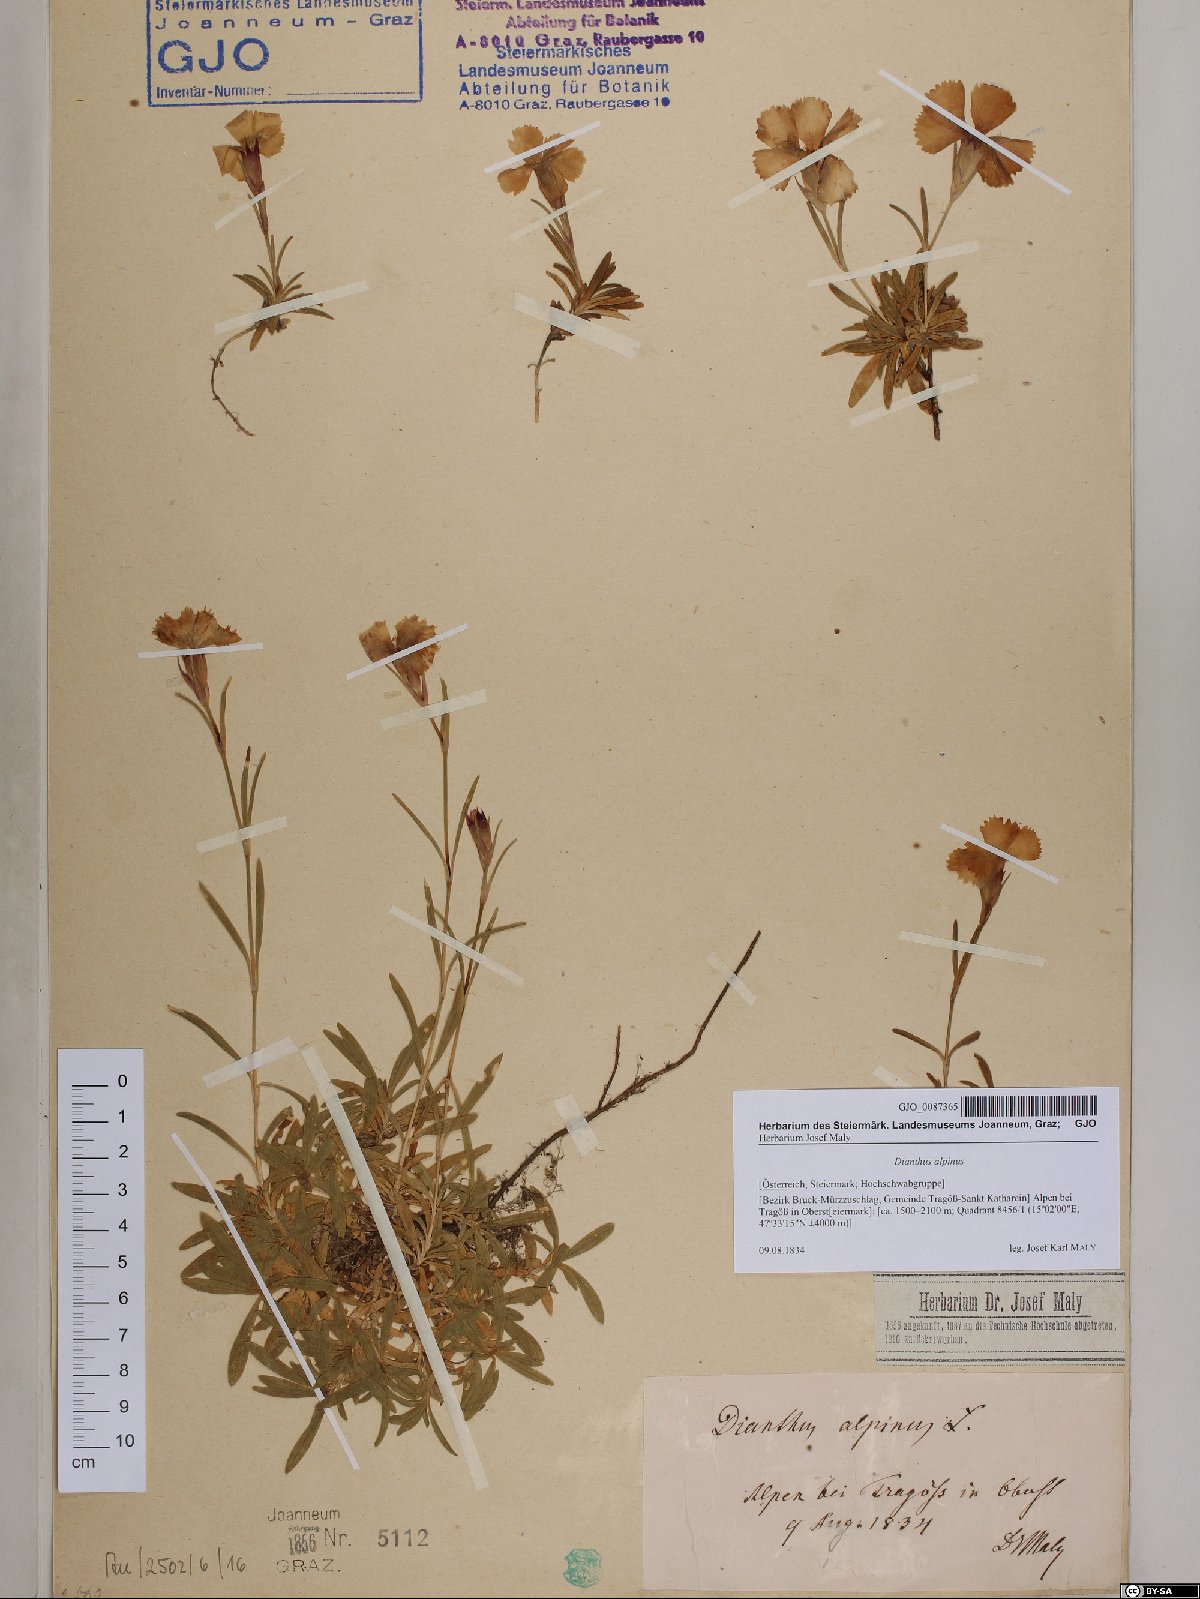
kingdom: Plantae
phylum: Tracheophyta
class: Magnoliopsida
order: Caryophyllales
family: Caryophyllaceae
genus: Dianthus
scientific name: Dianthus alpinus
